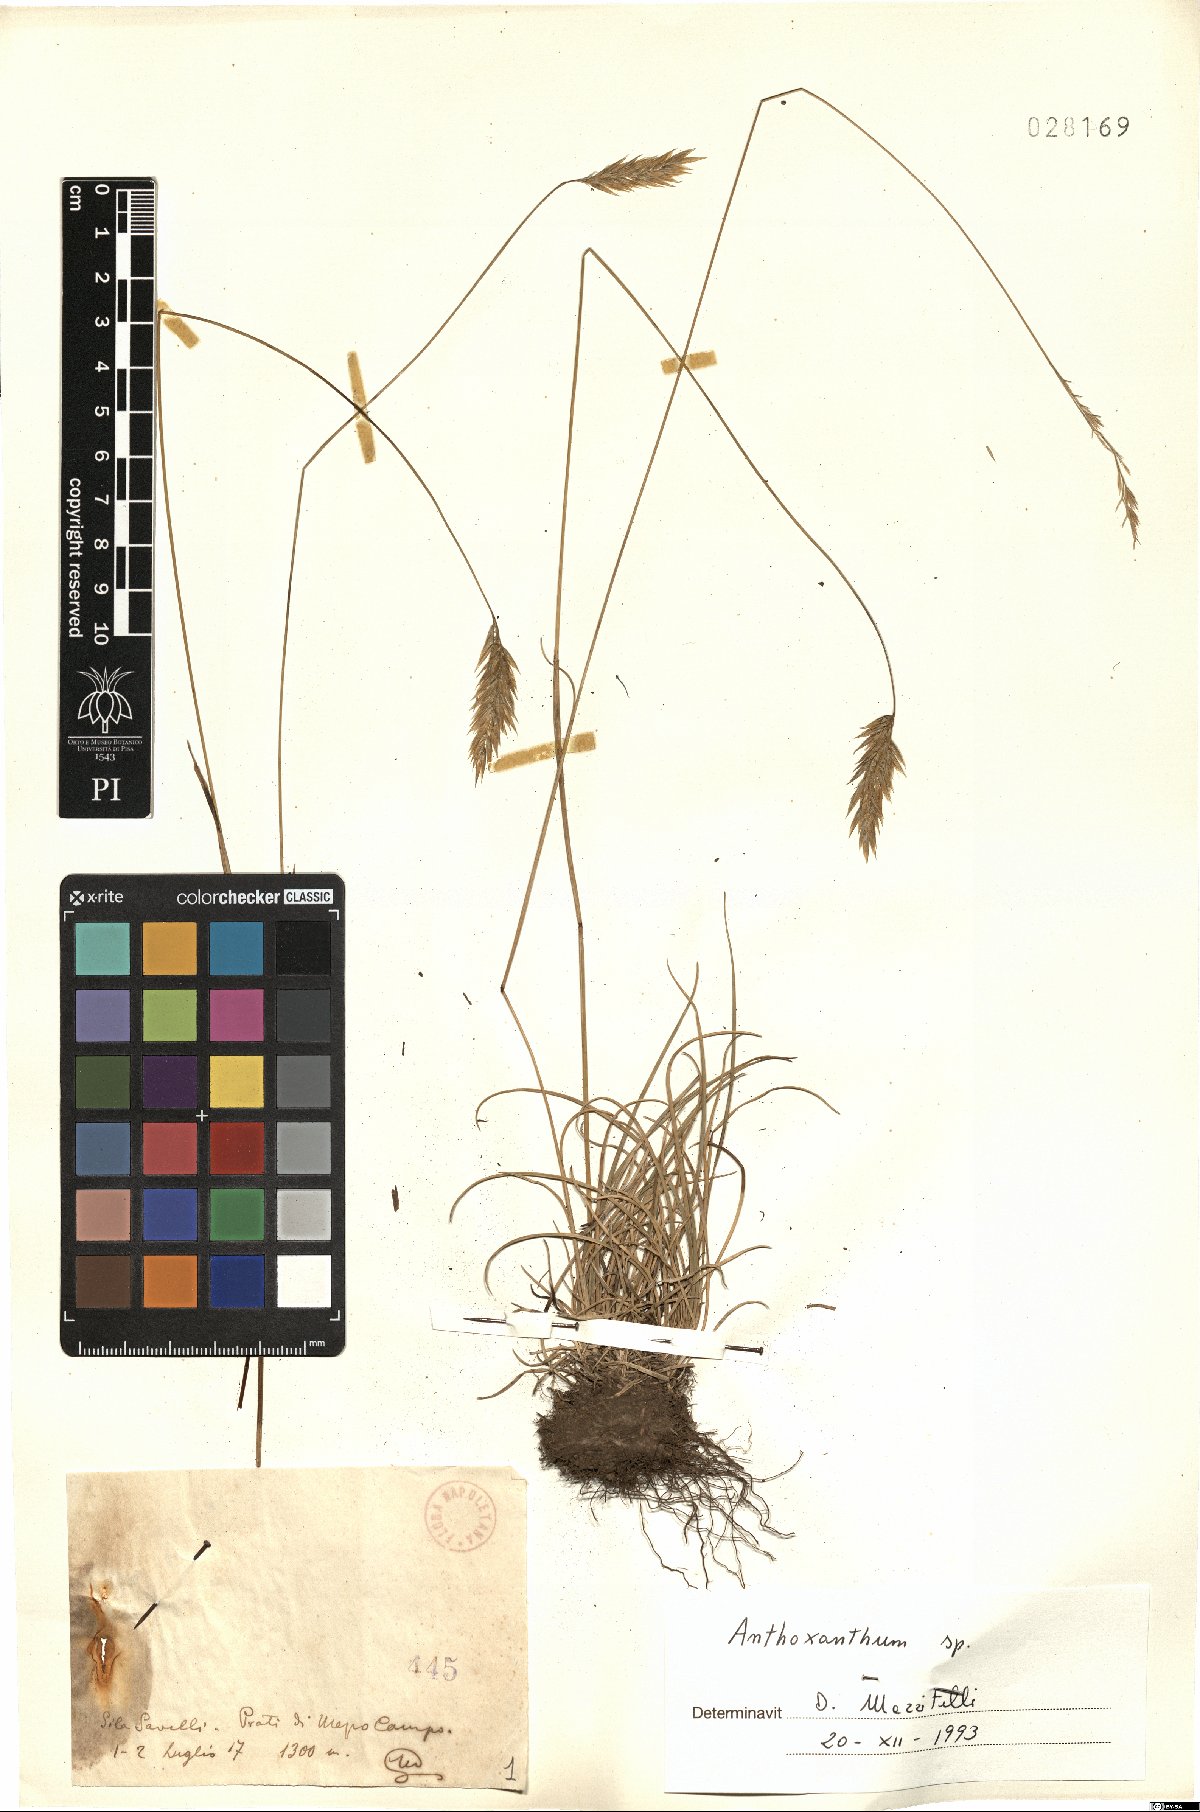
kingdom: Plantae
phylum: Tracheophyta
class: Liliopsida
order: Poales
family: Poaceae
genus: Anthoxanthum
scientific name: Anthoxanthum
